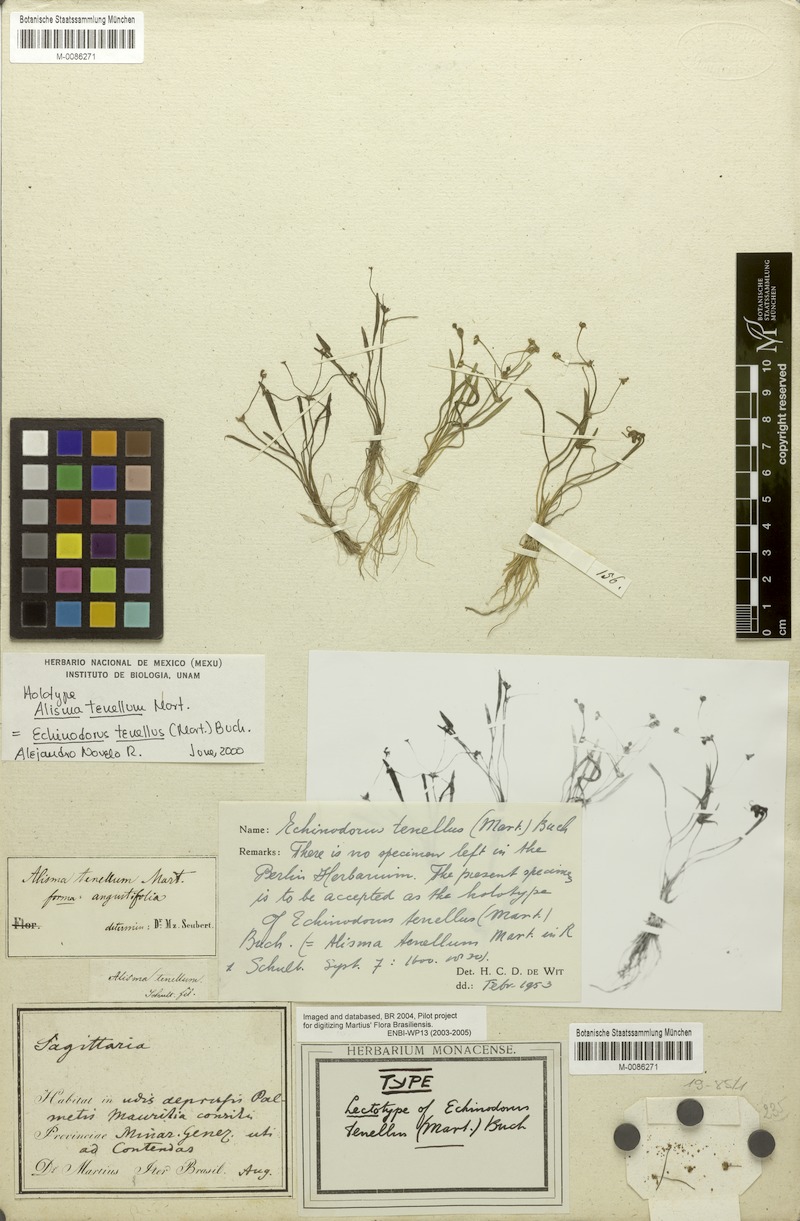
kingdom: Plantae
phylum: Tracheophyta
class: Liliopsida
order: Alismatales
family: Alismataceae
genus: Helanthium
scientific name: Helanthium tenellum
